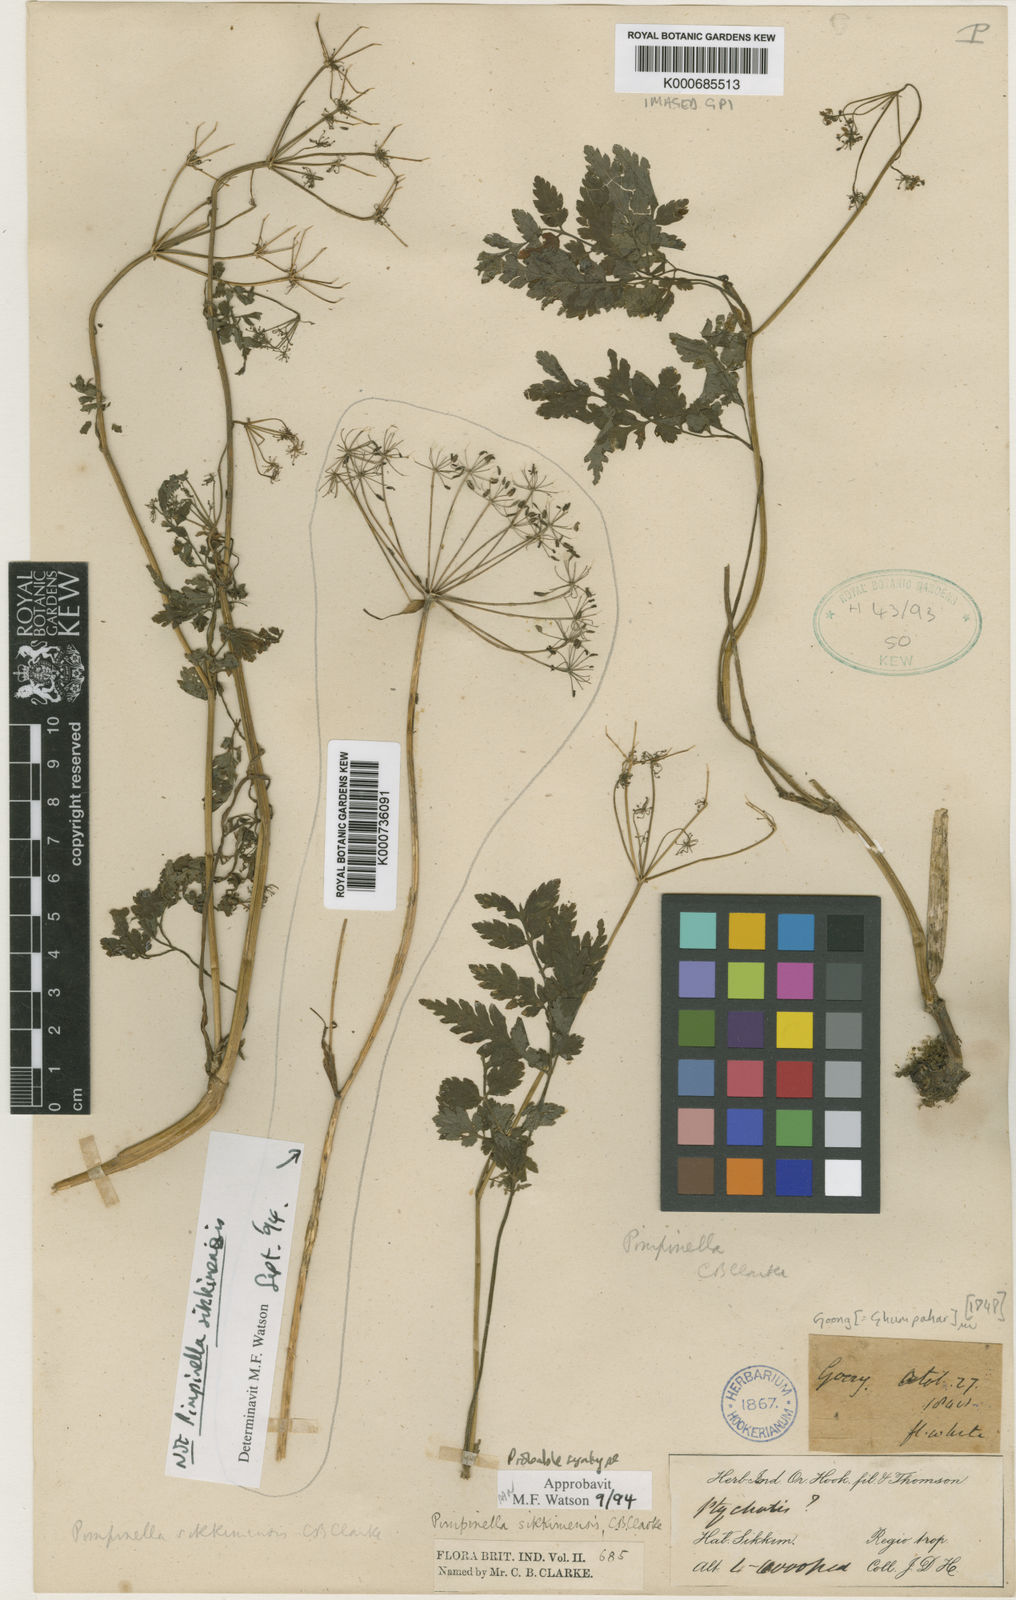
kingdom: Plantae
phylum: Tracheophyta
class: Magnoliopsida
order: Apiales
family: Apiaceae
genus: Pimpinella
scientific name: Pimpinella sikkimensis
